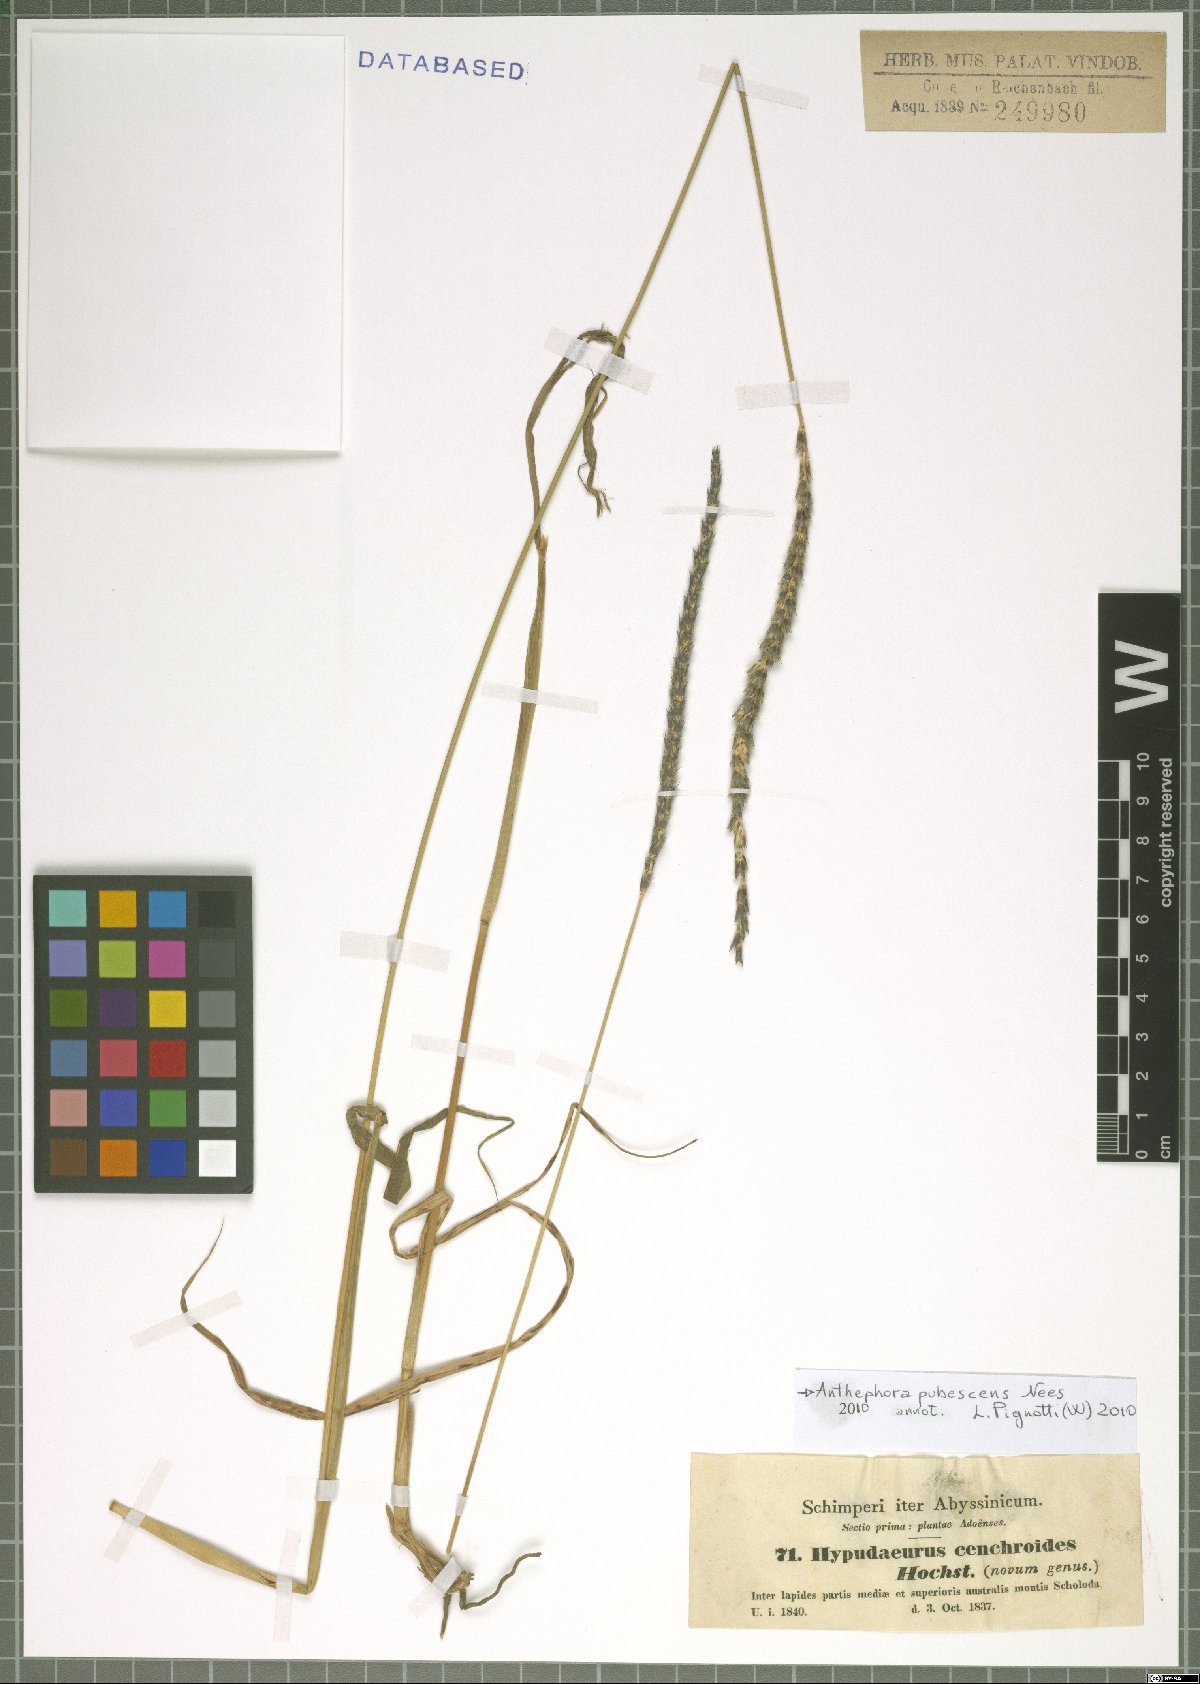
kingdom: Plantae
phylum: Tracheophyta
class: Liliopsida
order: Poales
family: Poaceae
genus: Anthephora
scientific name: Anthephora pubescens
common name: Wool grass
